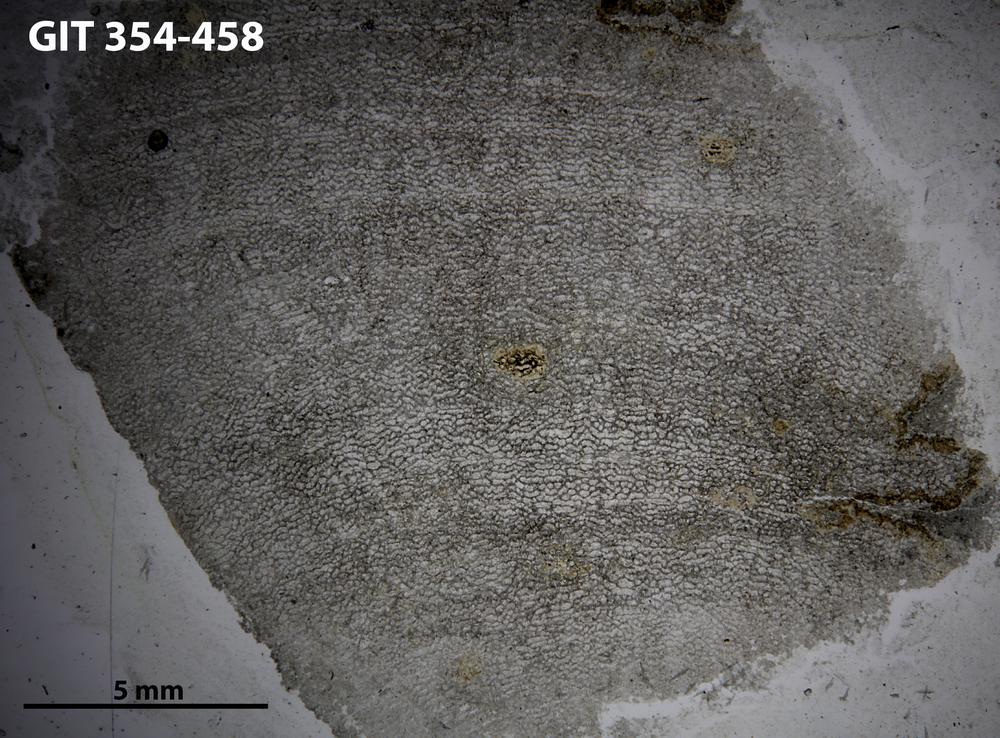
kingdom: Animalia
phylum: Porifera
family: Clathrodictyidae
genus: Clathrodictyon
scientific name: Clathrodictyon Stromatopora variolaris
